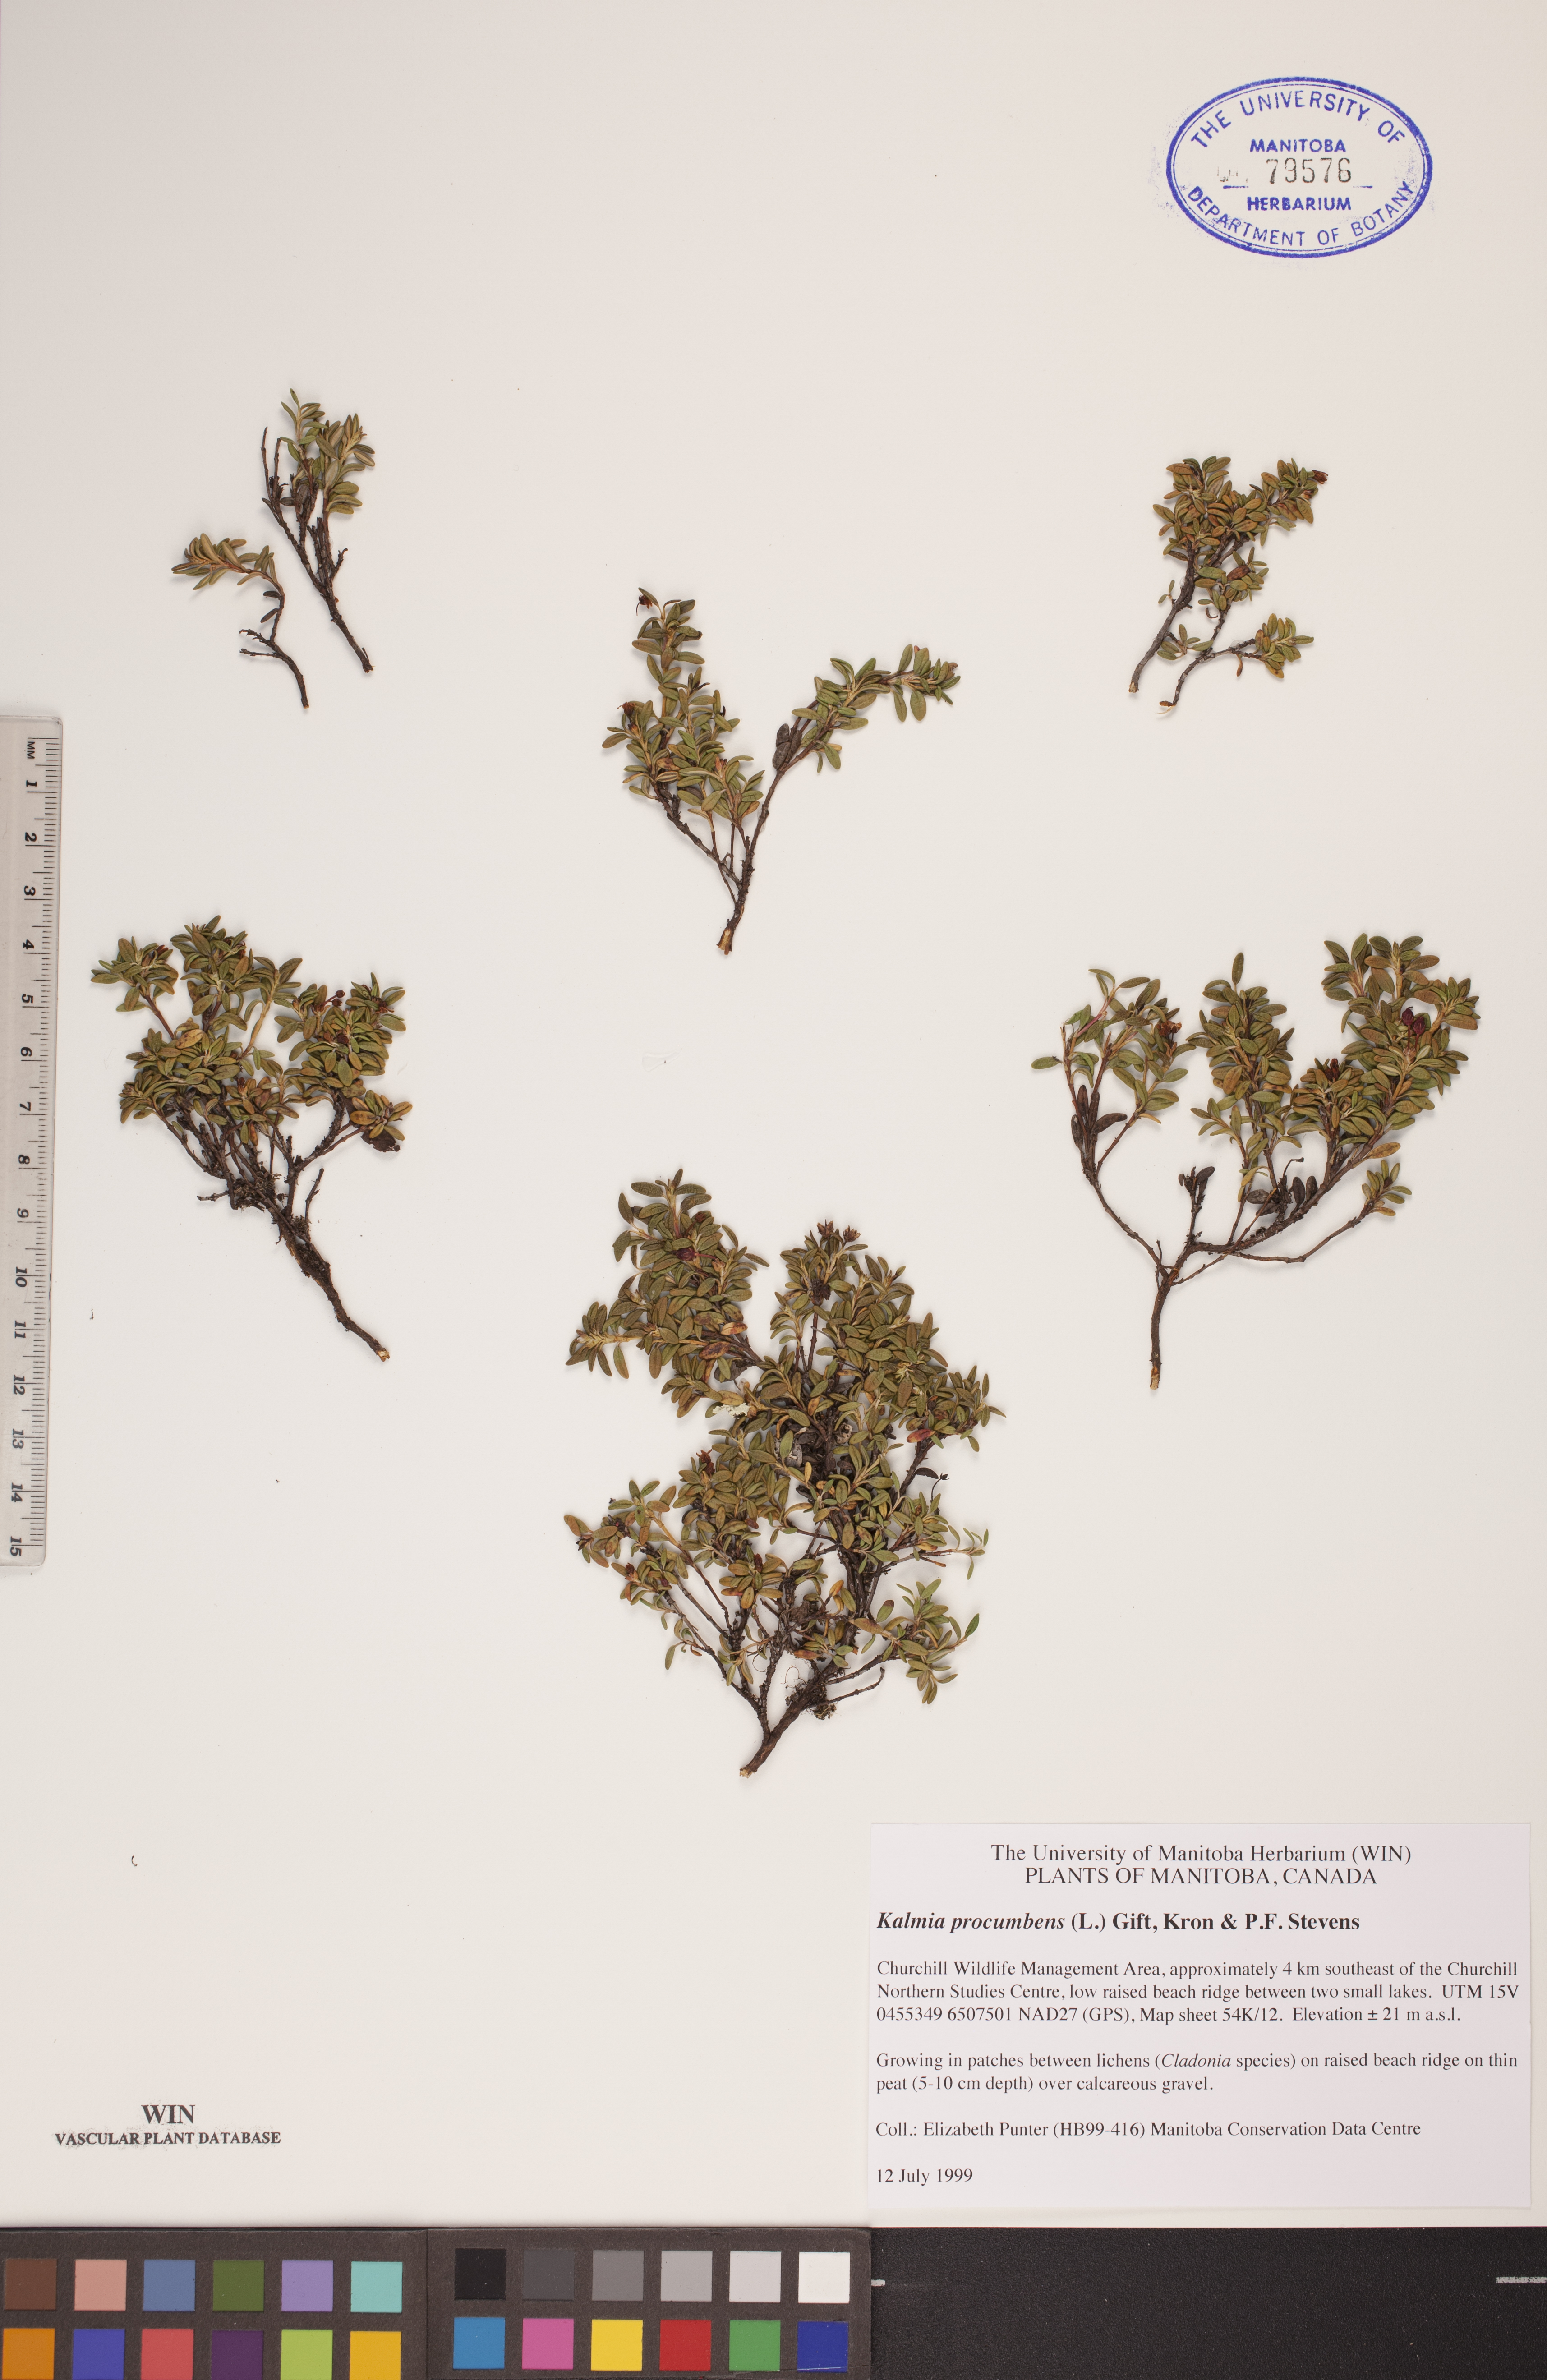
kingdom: Plantae
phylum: Tracheophyta
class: Magnoliopsida
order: Ericales
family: Ericaceae
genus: Kalmia
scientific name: Kalmia procumbens
